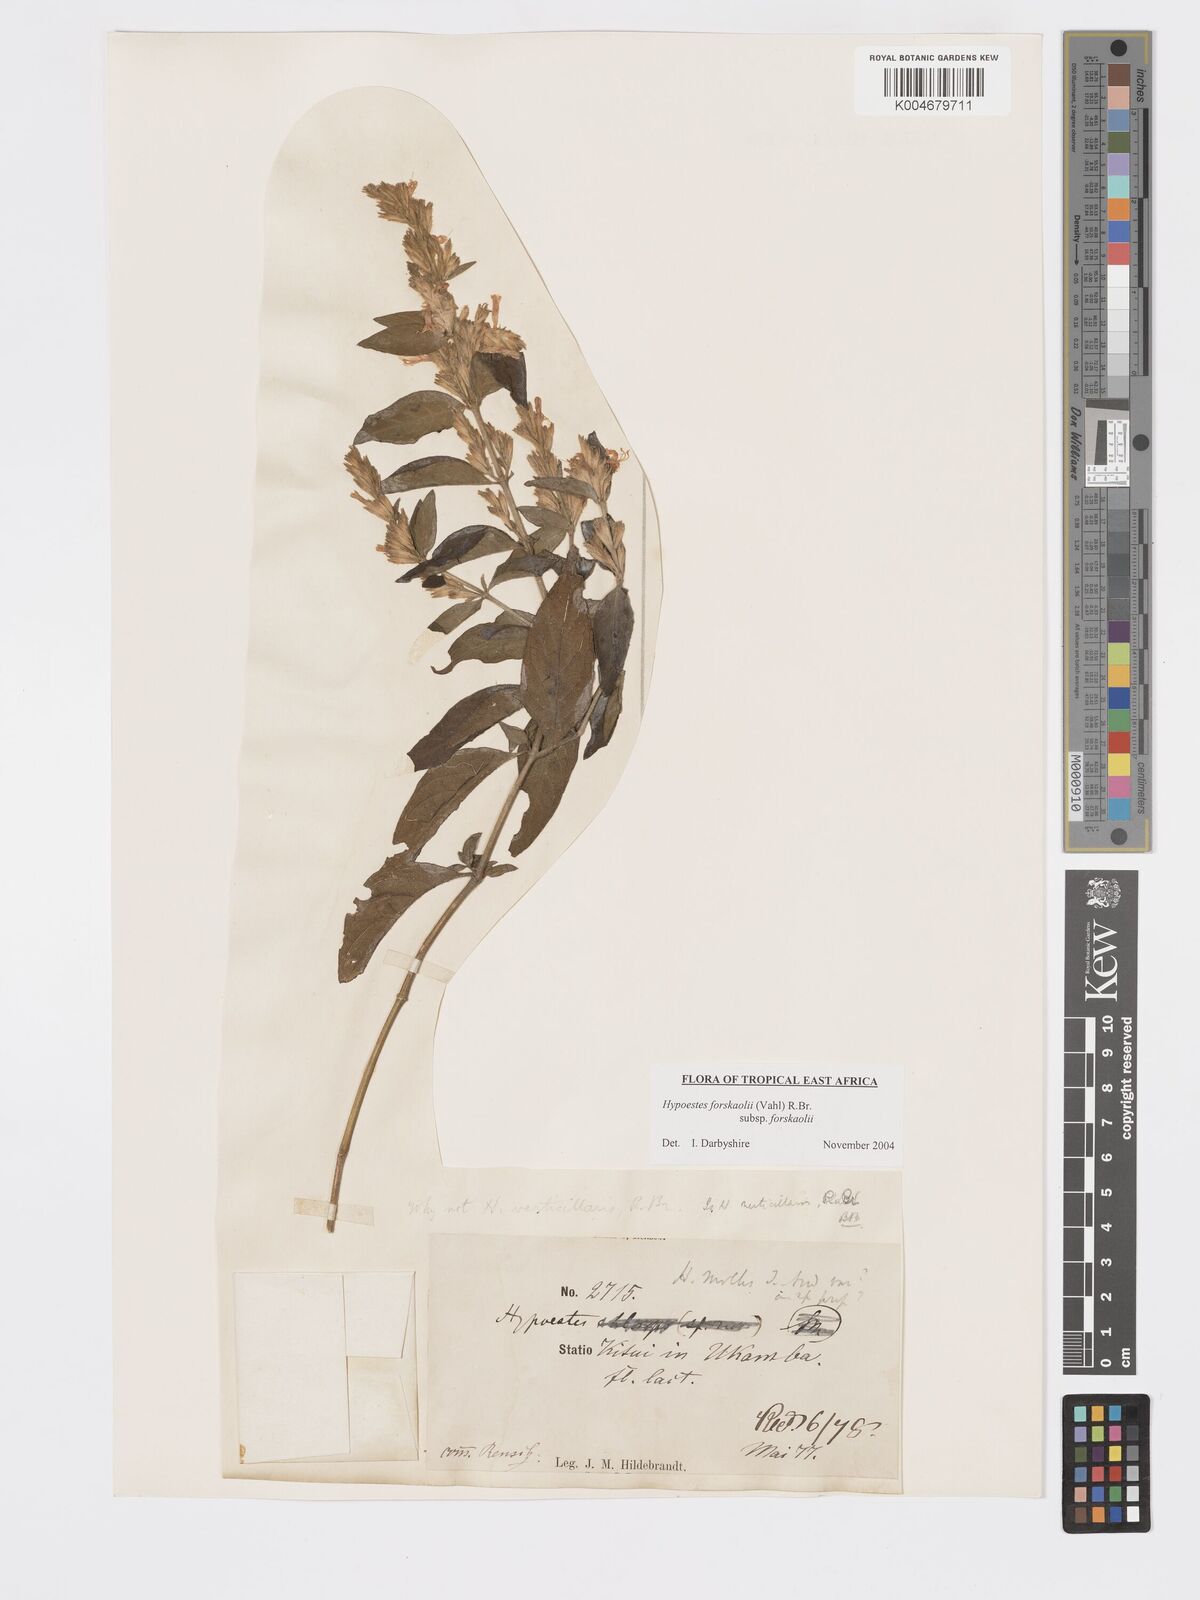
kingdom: Plantae
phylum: Tracheophyta
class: Magnoliopsida
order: Lamiales
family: Acanthaceae
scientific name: Acanthaceae
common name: Acanthaceae
